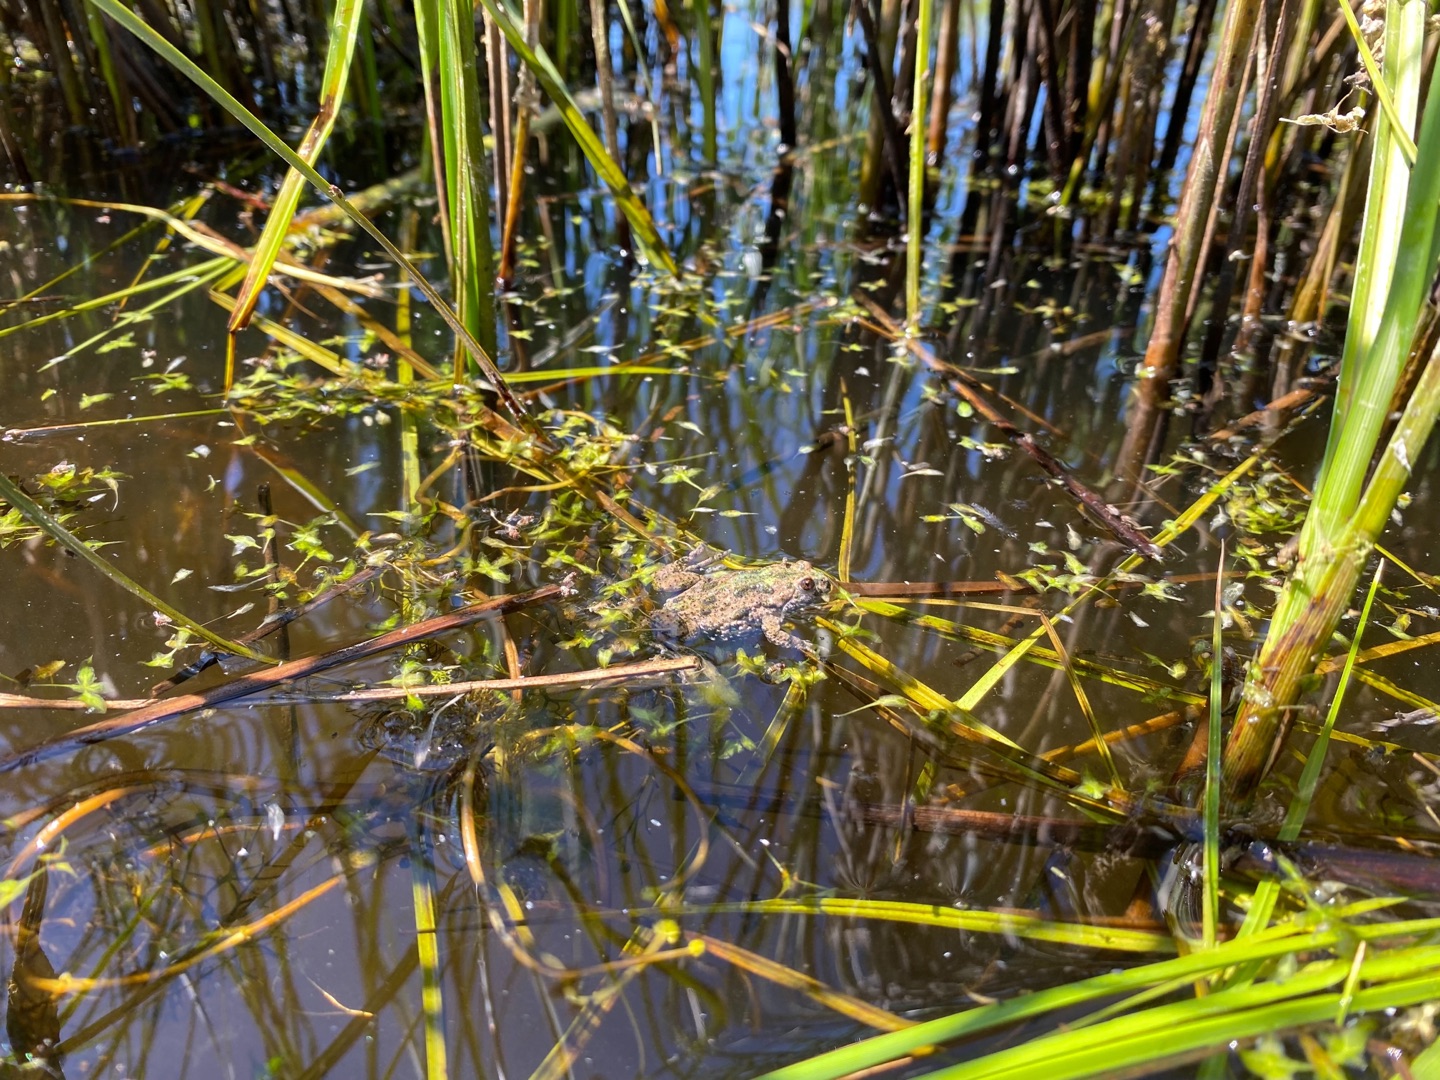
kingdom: Animalia
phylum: Chordata
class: Amphibia
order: Anura
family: Bombinatoridae
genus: Bombina
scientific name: Bombina bombina
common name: Klokkefrø
